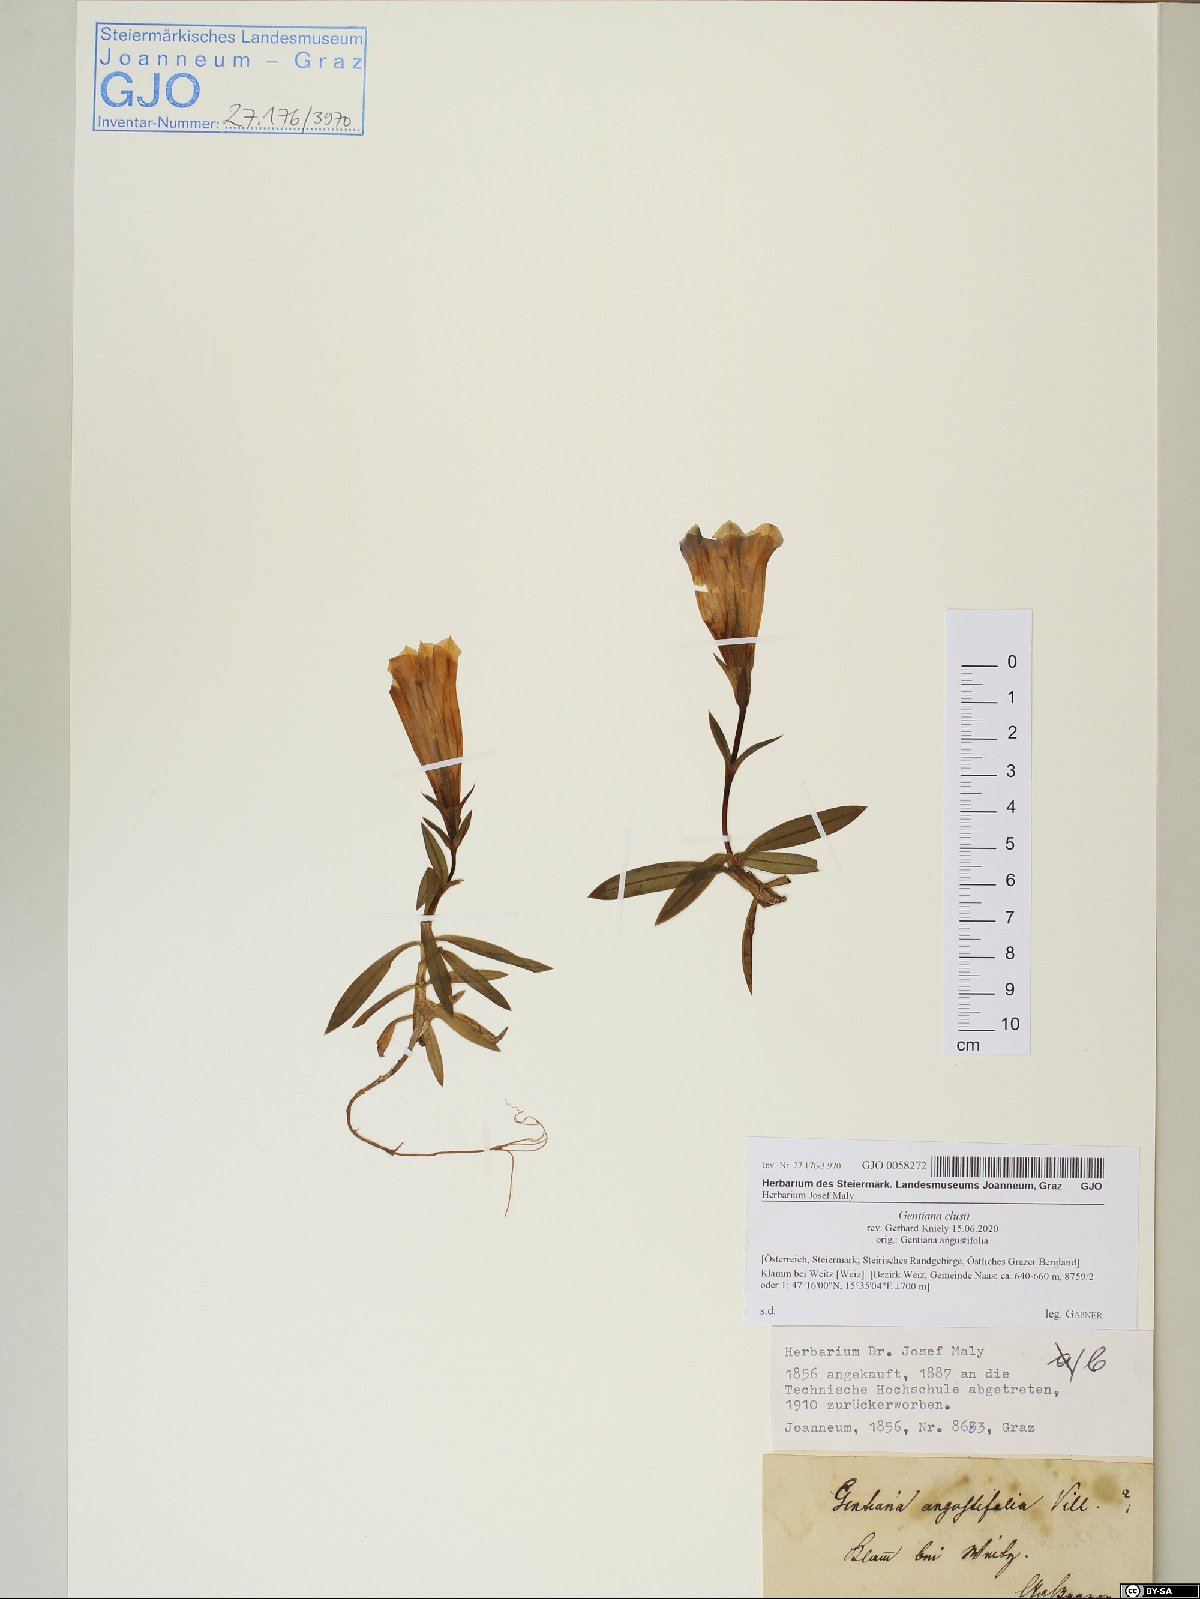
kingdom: Plantae
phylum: Tracheophyta
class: Magnoliopsida
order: Gentianales
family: Gentianaceae
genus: Gentiana
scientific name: Gentiana clusii
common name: Trumpet gentian
